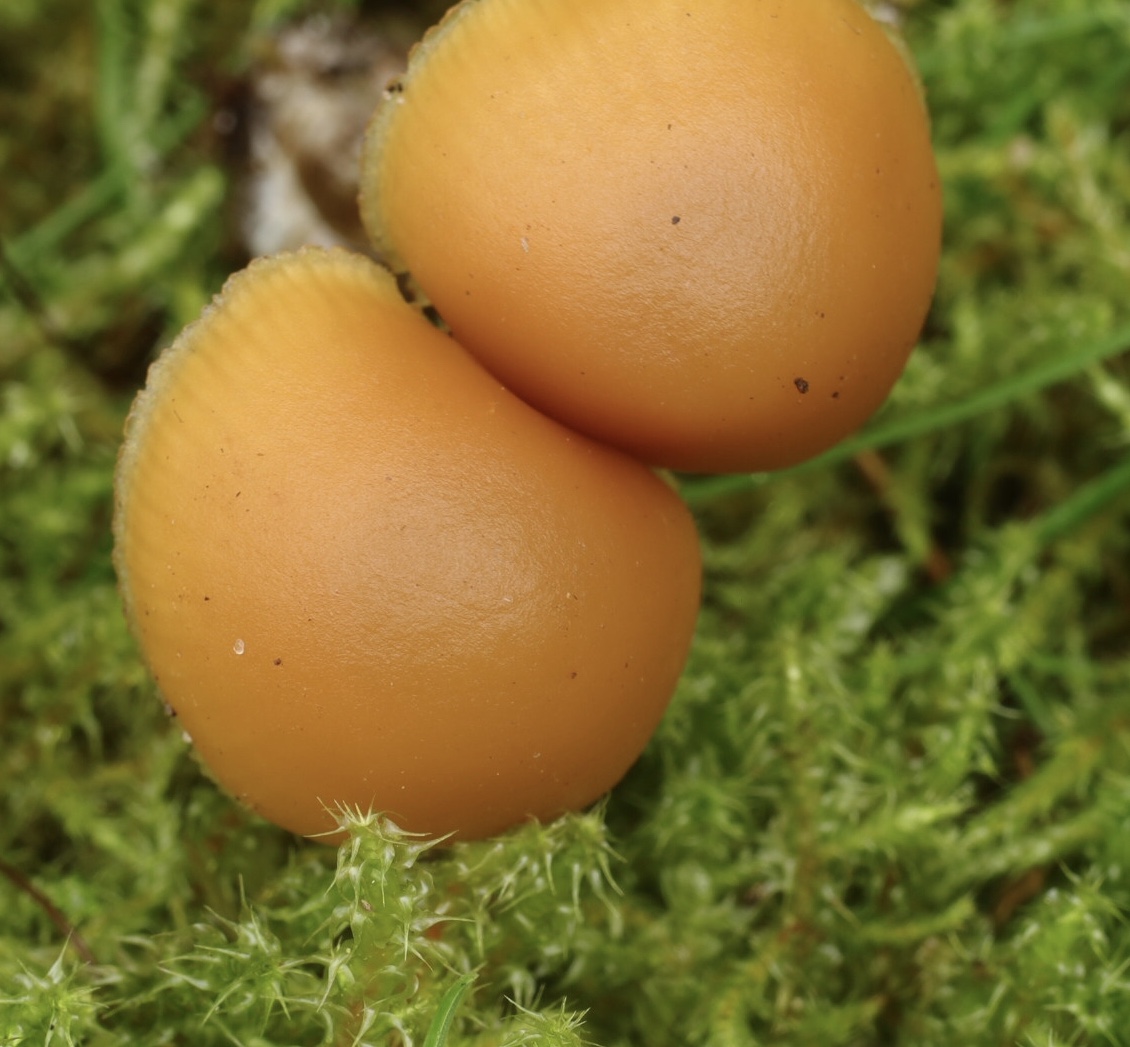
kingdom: Fungi
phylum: Basidiomycota
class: Agaricomycetes
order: Agaricales
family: Hymenogastraceae
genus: Galerina
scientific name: Galerina
